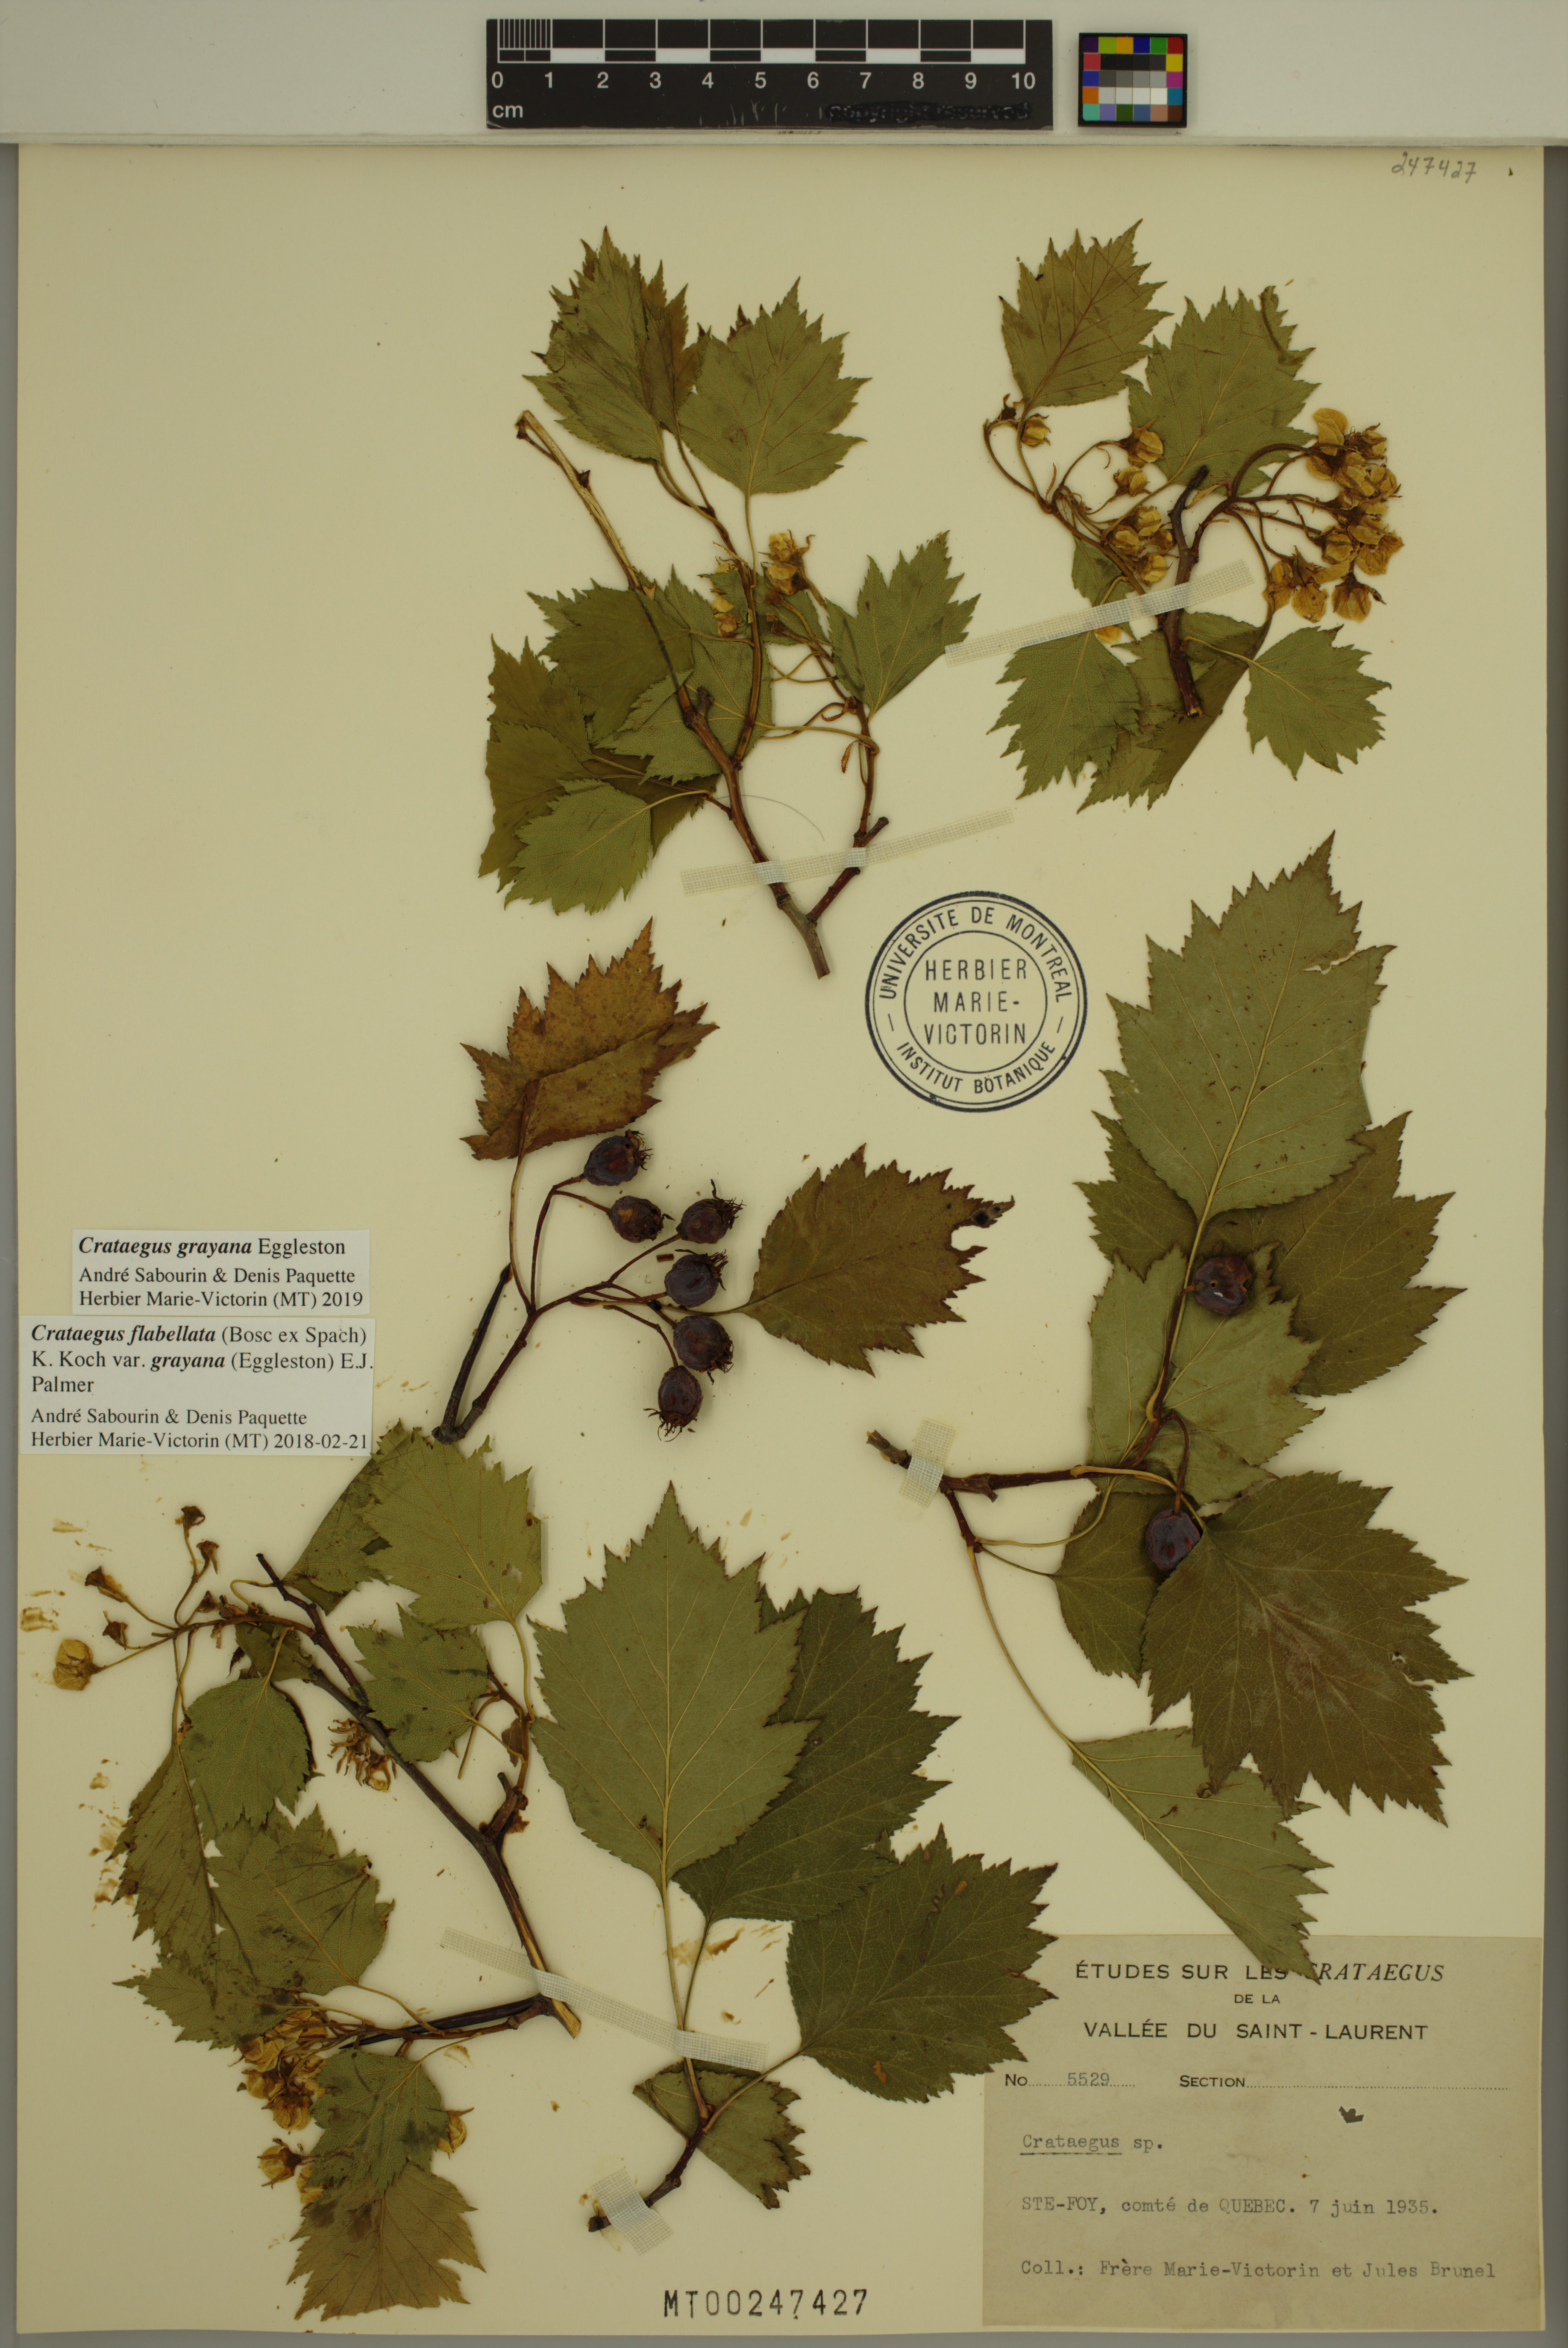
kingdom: Plantae
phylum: Tracheophyta
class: Magnoliopsida
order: Rosales
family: Rosaceae
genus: Crataegus
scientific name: Crataegus schuettei
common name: Schuette's hawthorn
